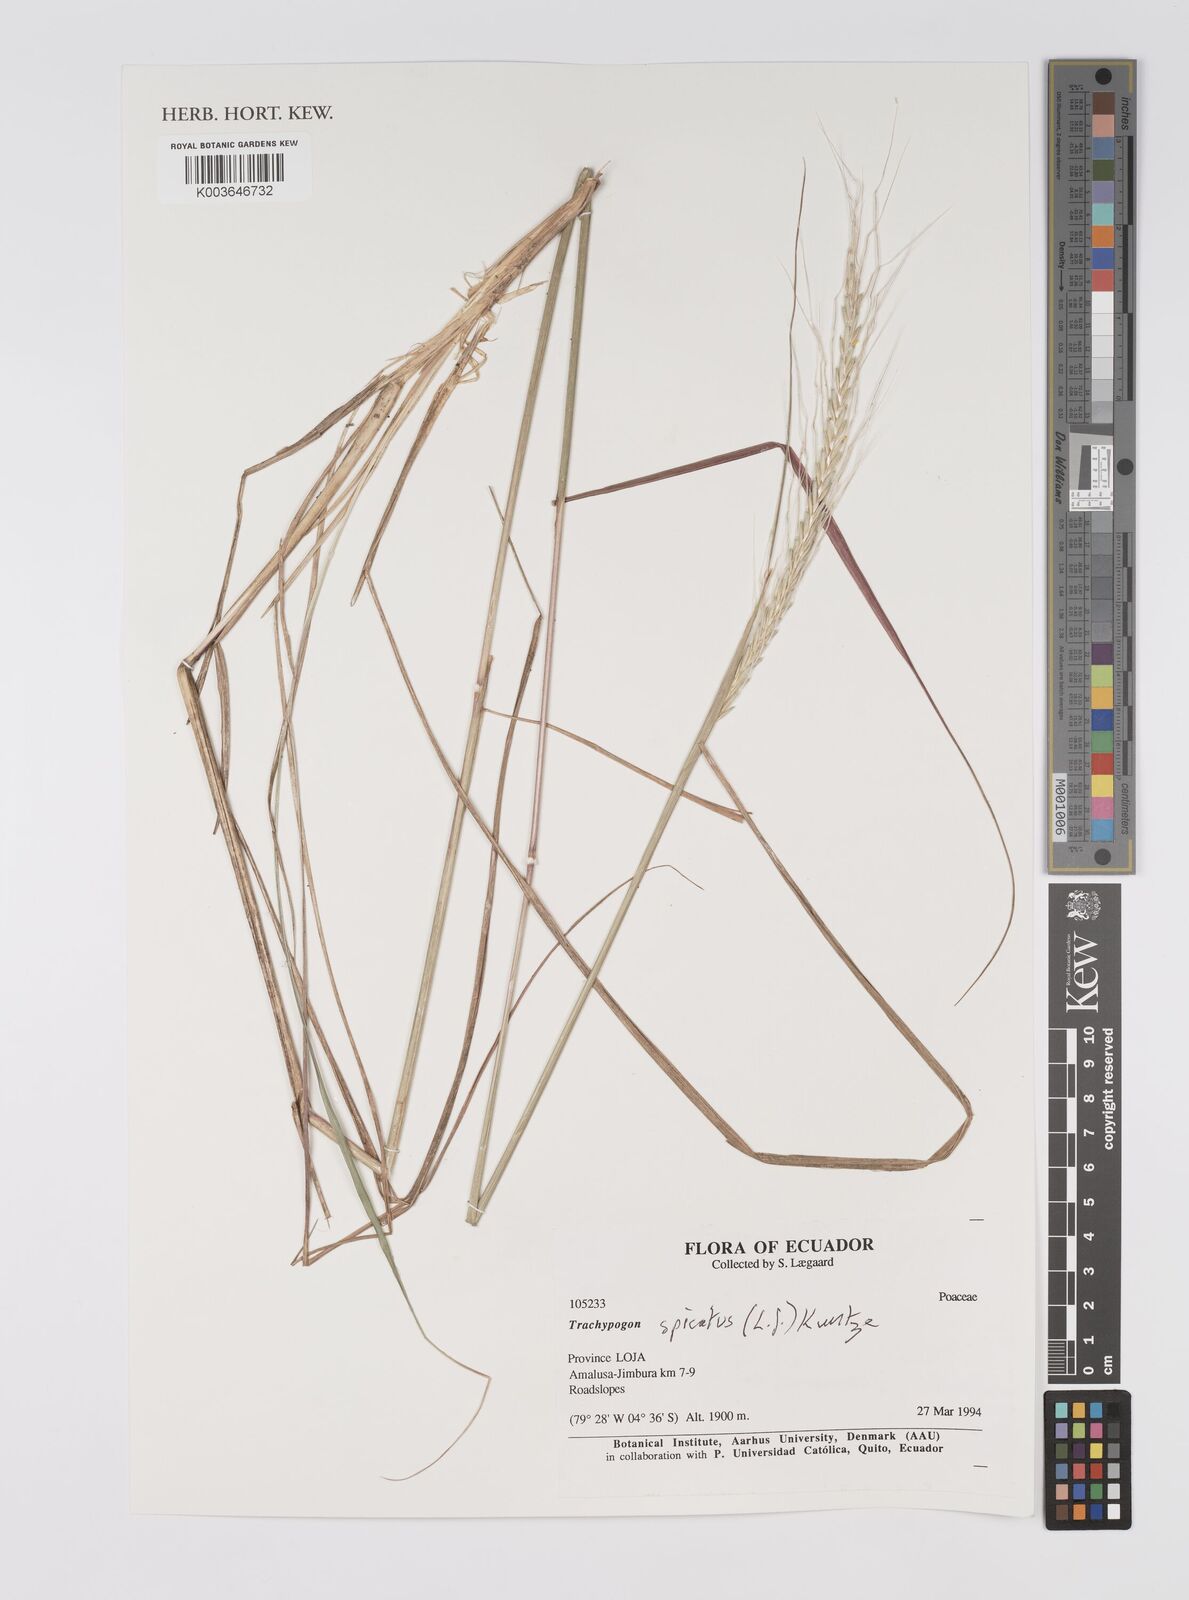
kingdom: Plantae
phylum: Tracheophyta
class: Liliopsida
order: Poales
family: Poaceae
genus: Trachypogon
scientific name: Trachypogon spicatus
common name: Crinkle-awn
